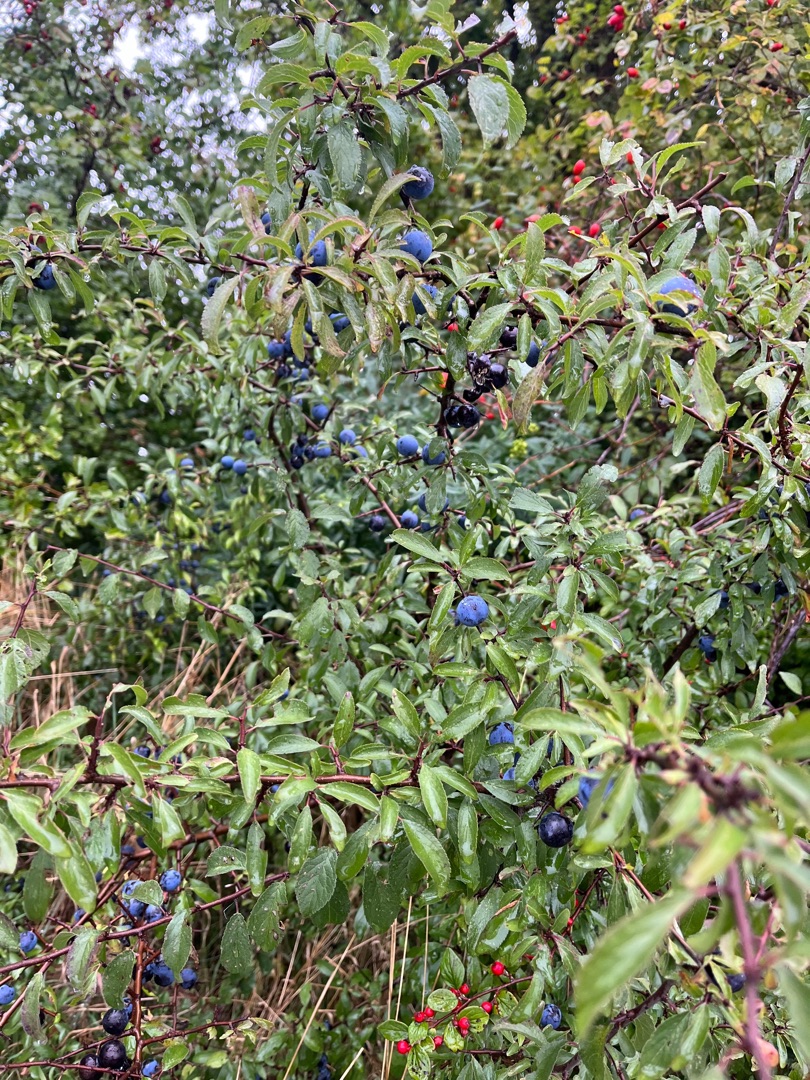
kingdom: Plantae
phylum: Tracheophyta
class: Magnoliopsida
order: Rosales
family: Rosaceae
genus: Prunus
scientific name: Prunus spinosa
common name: Slåen
